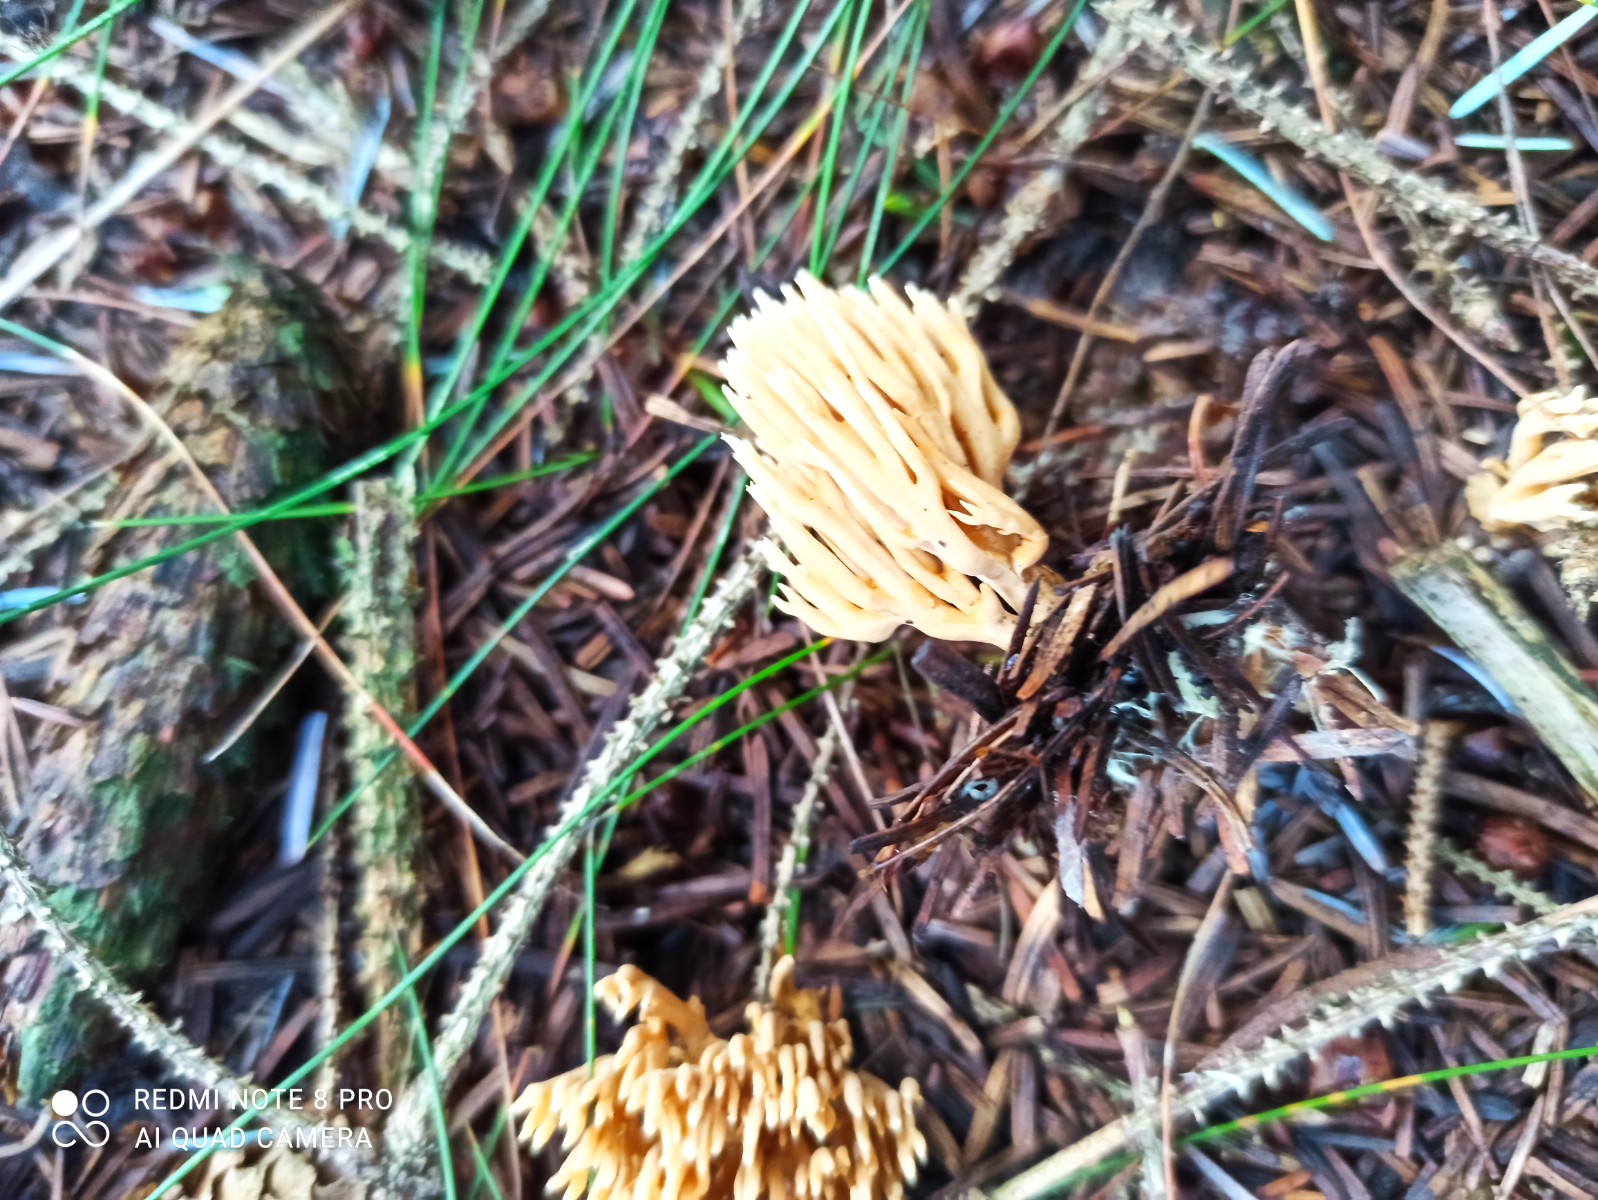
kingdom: Fungi
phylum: Basidiomycota
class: Agaricomycetes
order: Gomphales
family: Gomphaceae
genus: Phaeoclavulina
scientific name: Phaeoclavulina eumorpha
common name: gran-koralsvamp
